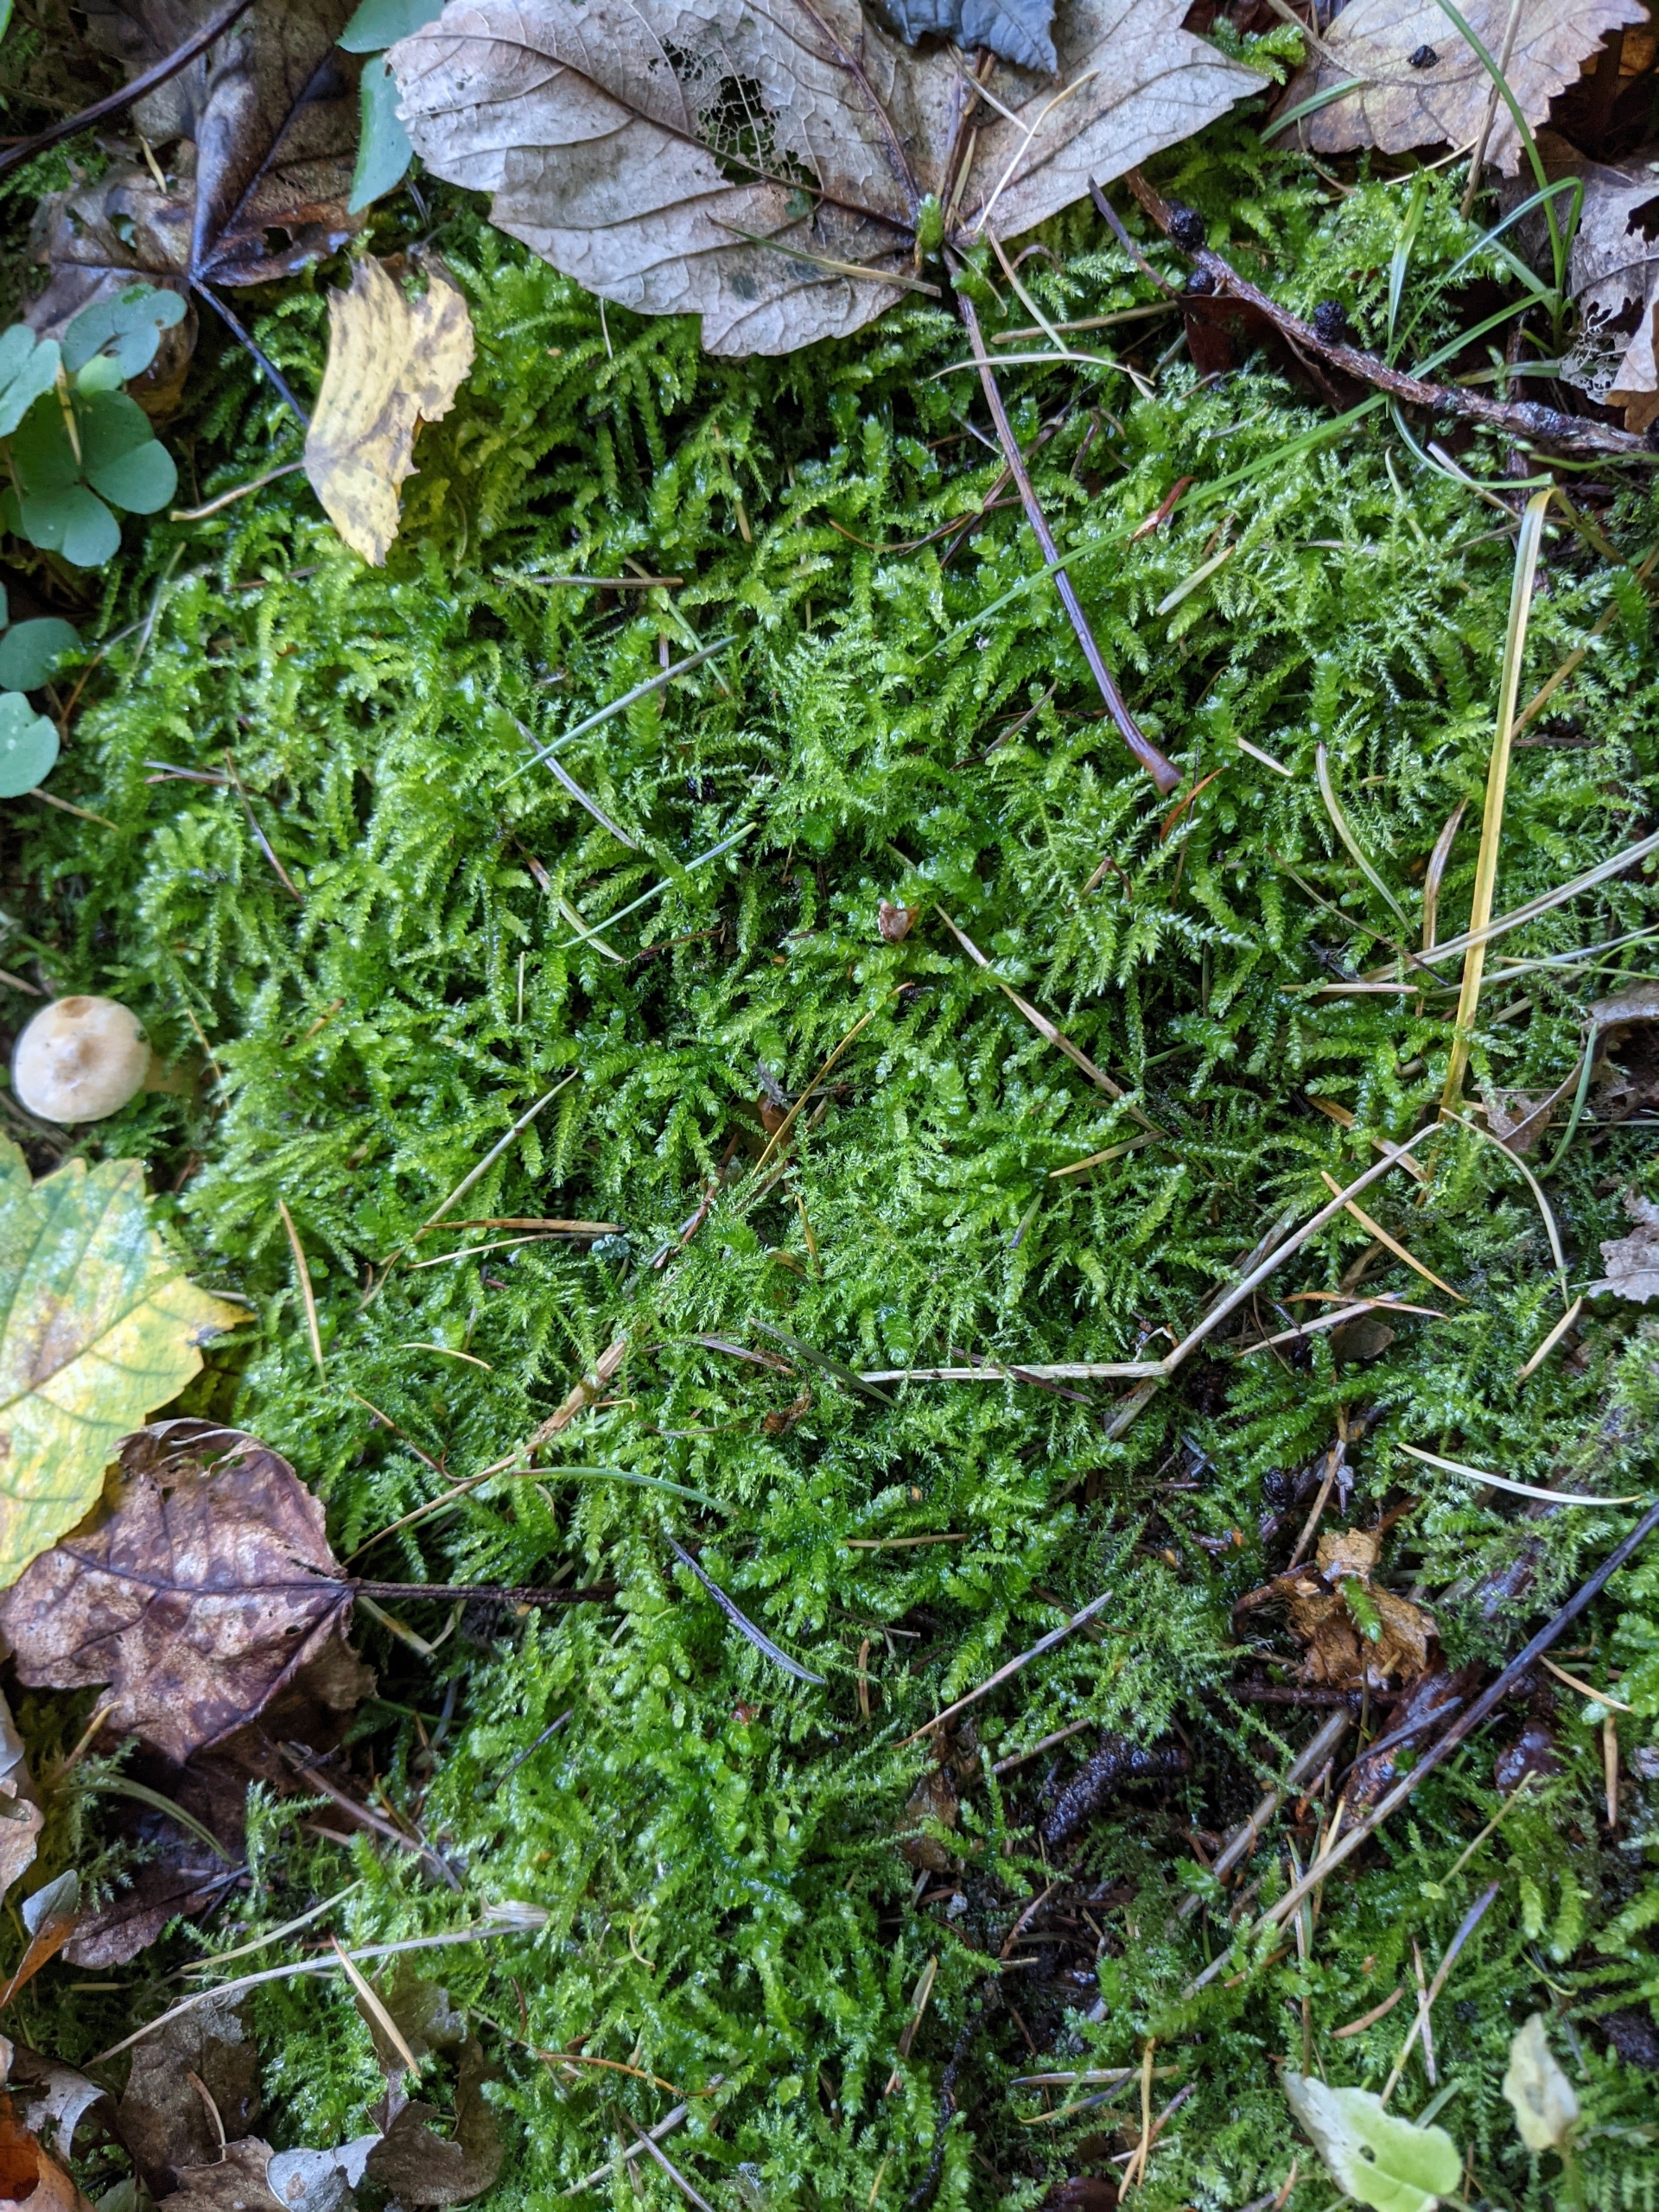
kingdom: Plantae
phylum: Bryophyta
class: Bryopsida
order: Hypnales
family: Brachytheciaceae
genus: Eurhynchium
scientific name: Eurhynchium angustirete
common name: Stor næbmos
